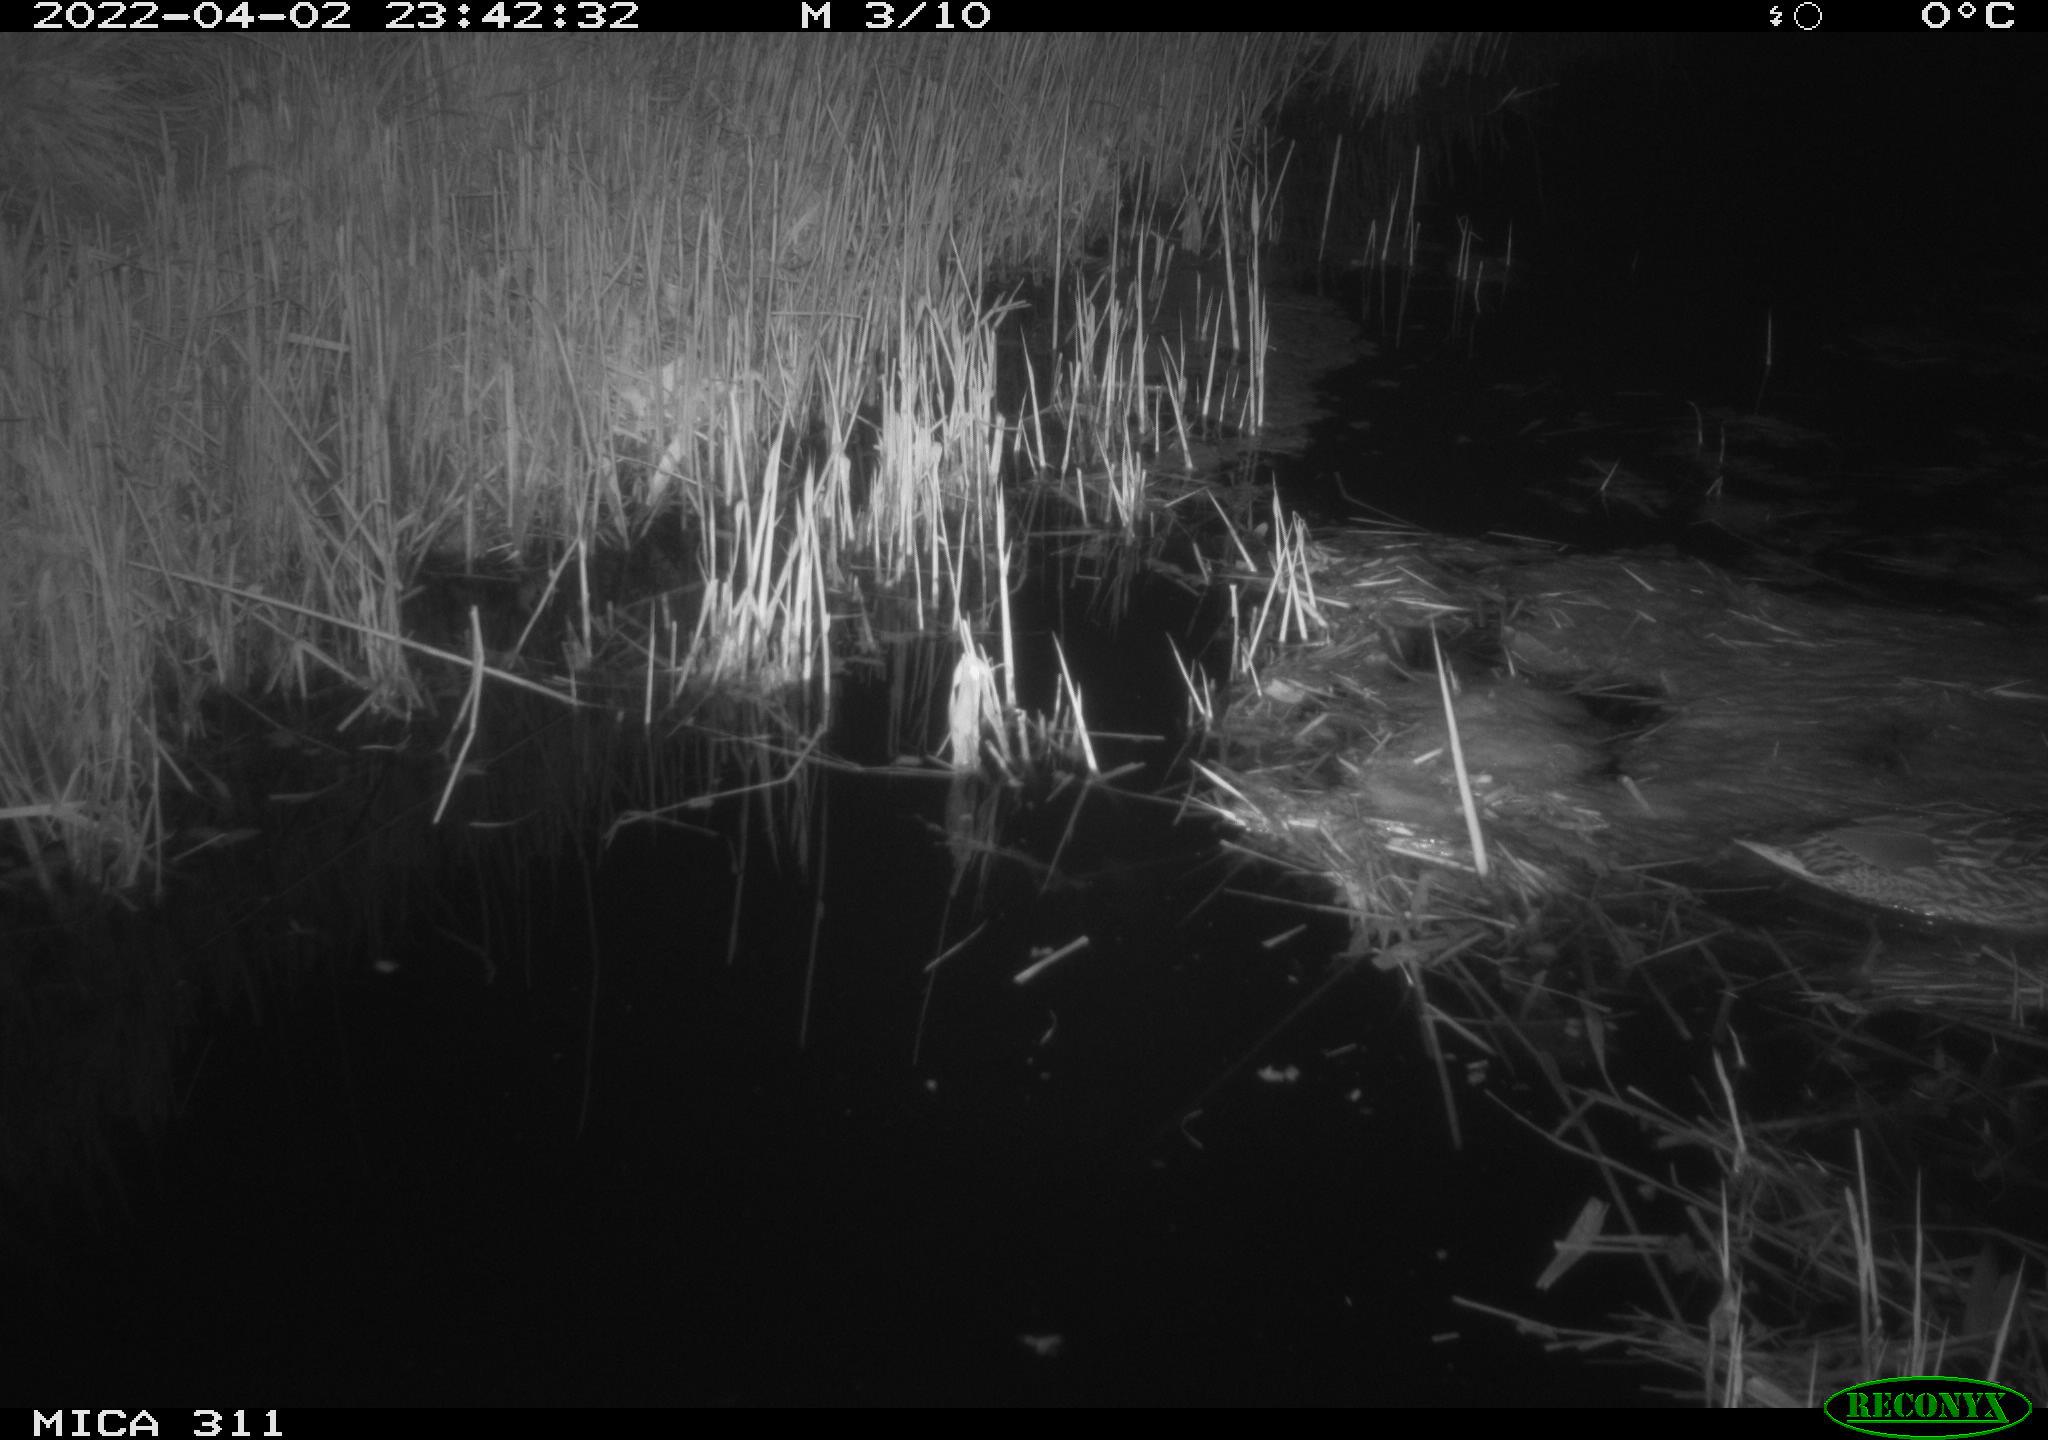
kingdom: Animalia
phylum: Chordata
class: Aves
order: Anseriformes
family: Anatidae
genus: Anas
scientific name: Anas platyrhynchos
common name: Mallard
